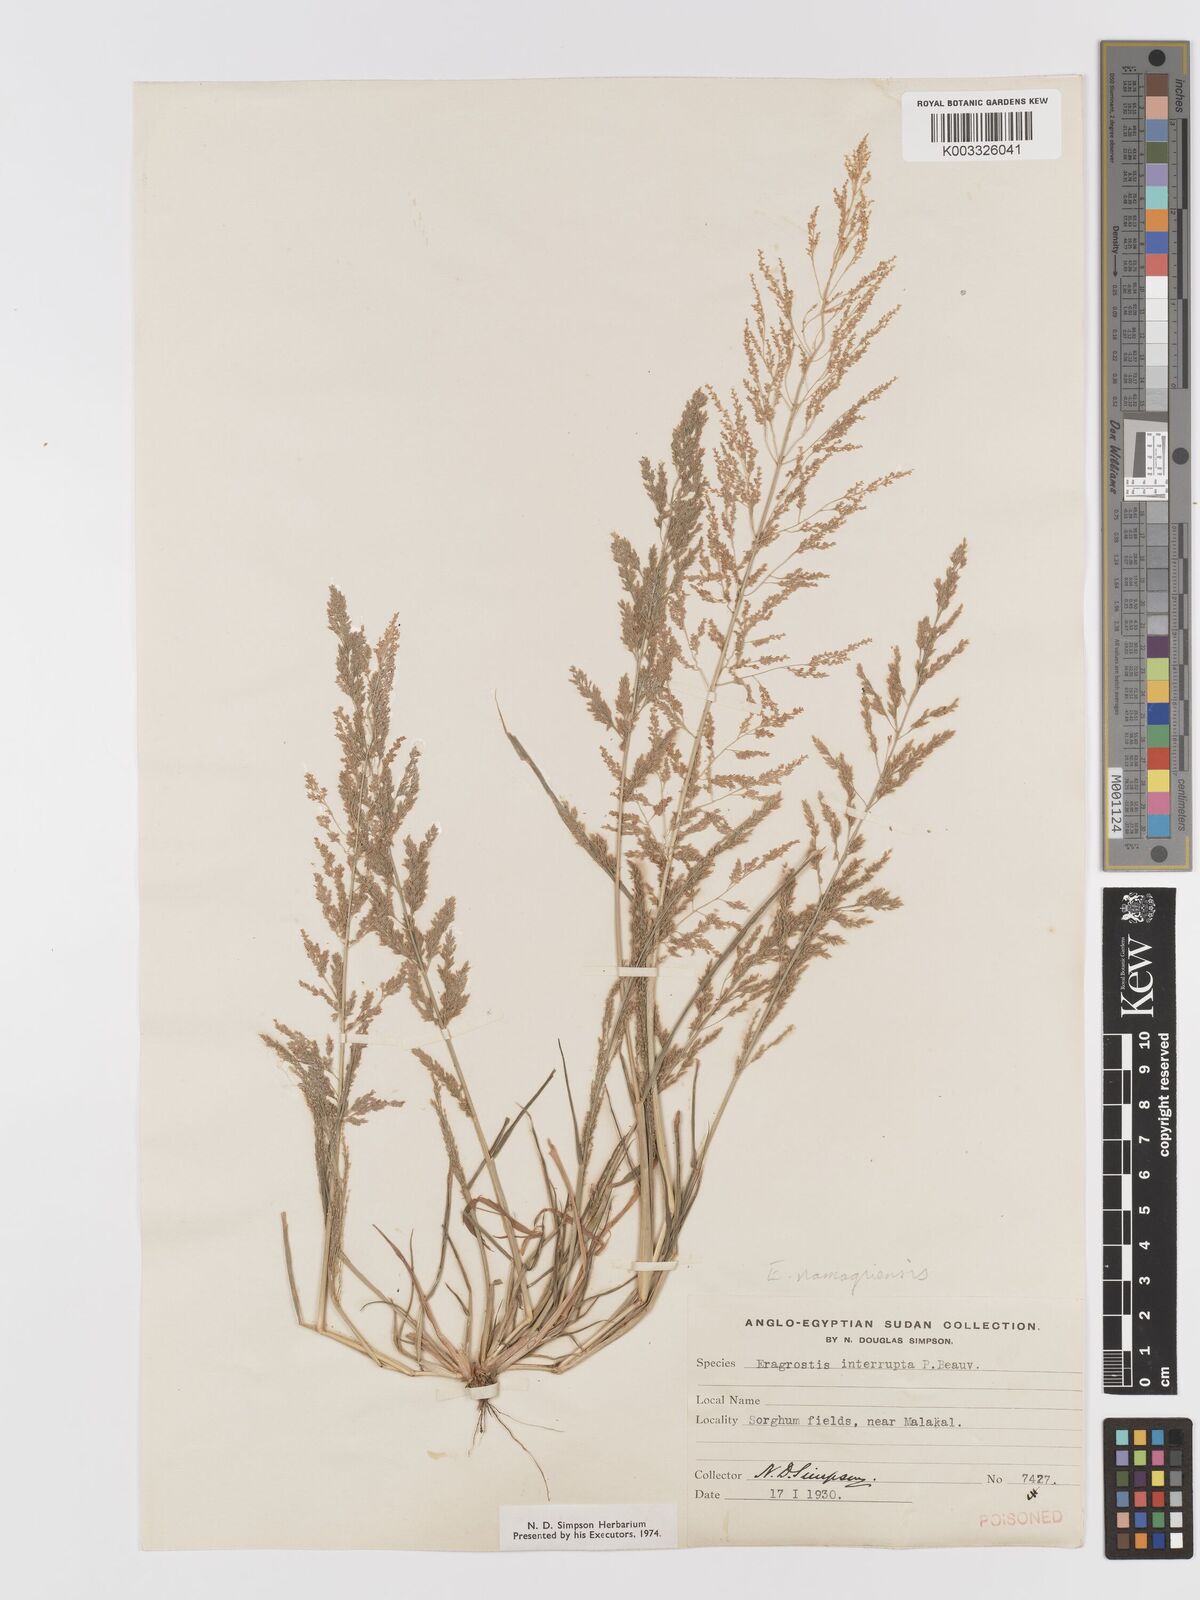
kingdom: Plantae
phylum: Tracheophyta
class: Liliopsida
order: Poales
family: Poaceae
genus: Eragrostis
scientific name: Eragrostis japonica
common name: Pond lovegrass
